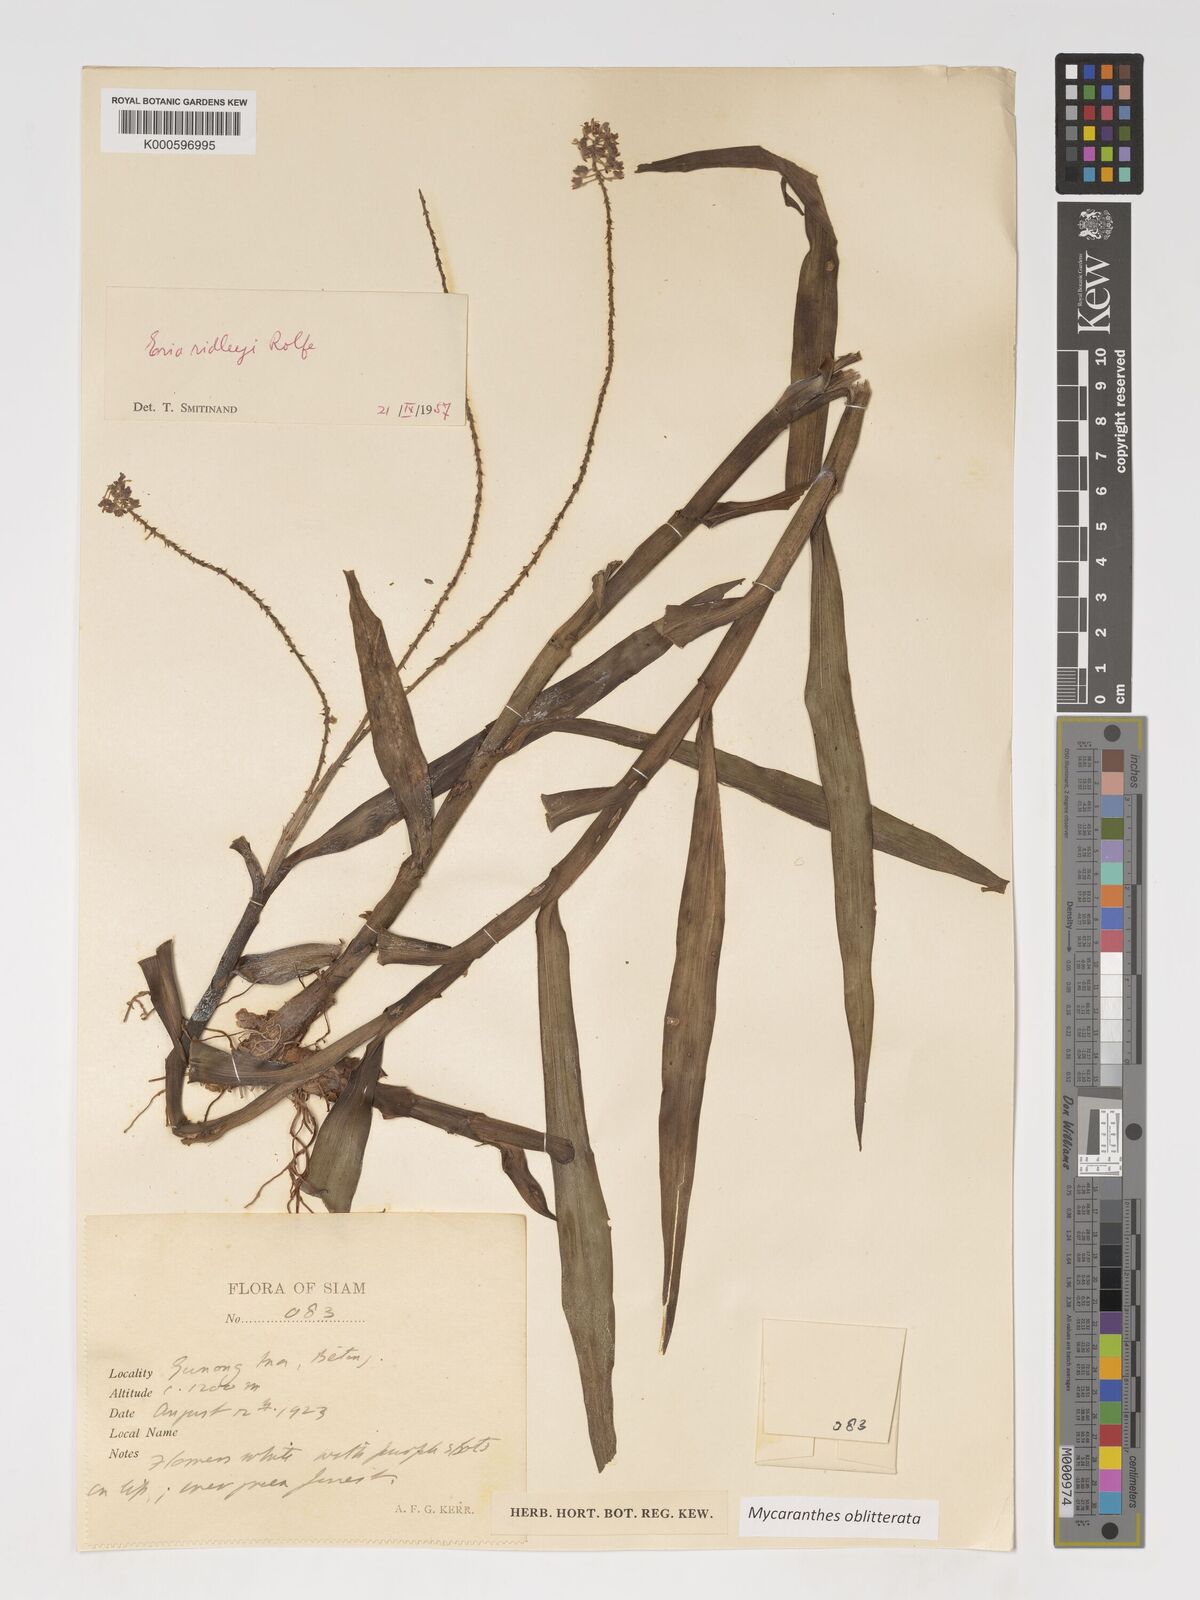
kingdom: Plantae
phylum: Tracheophyta
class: Liliopsida
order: Asparagales
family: Orchidaceae
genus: Mycaranthes
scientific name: Mycaranthes oblitterata
